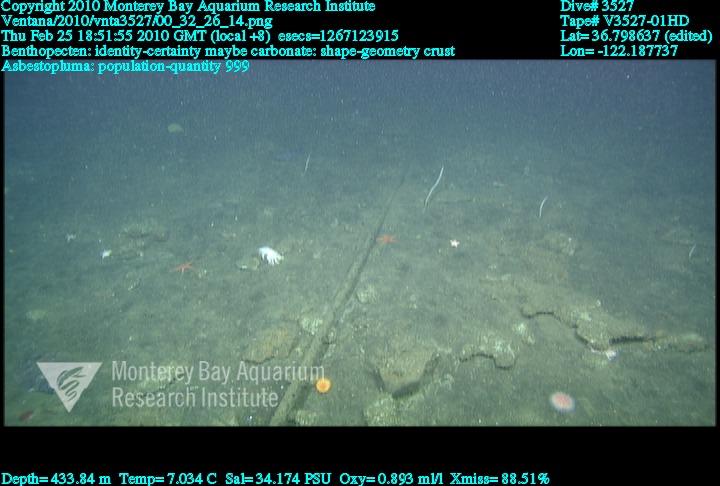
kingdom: Animalia
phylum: Porifera
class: Demospongiae
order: Poecilosclerida
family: Cladorhizidae
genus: Asbestopluma
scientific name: Asbestopluma
